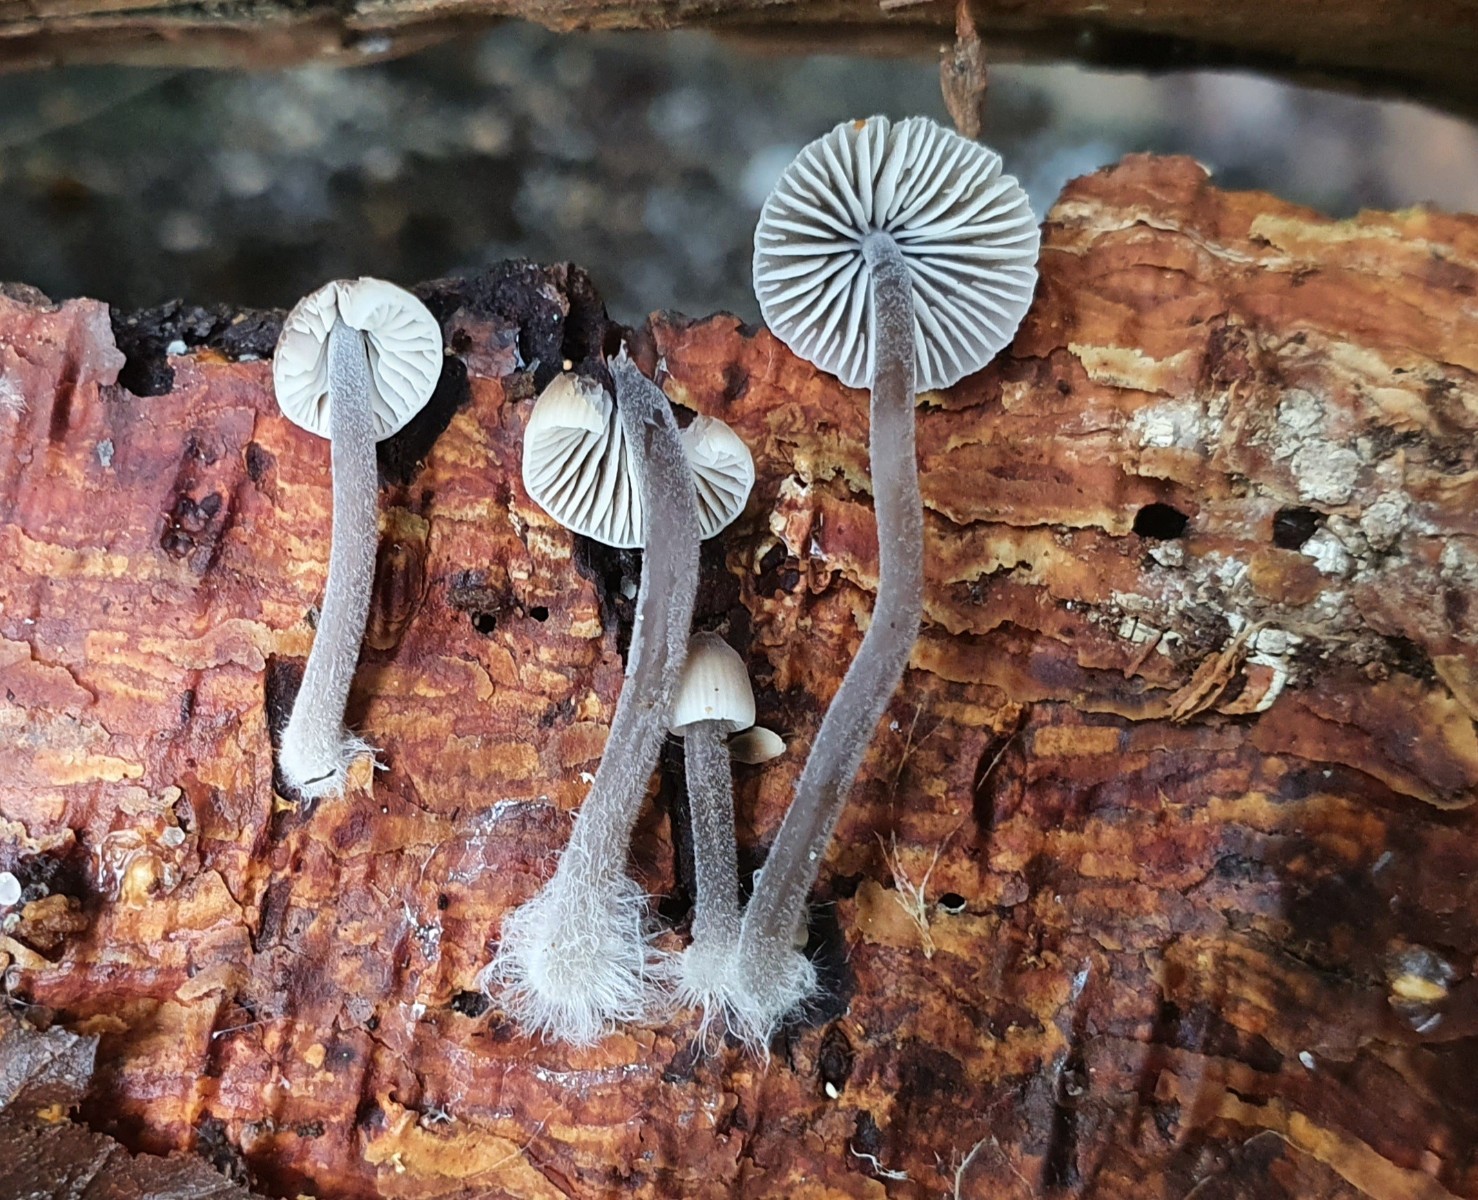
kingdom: Fungi
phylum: Basidiomycota
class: Agaricomycetes
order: Agaricales
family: Mycenaceae
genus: Mycena
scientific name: Mycena amicta
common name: iris-huesvamp
